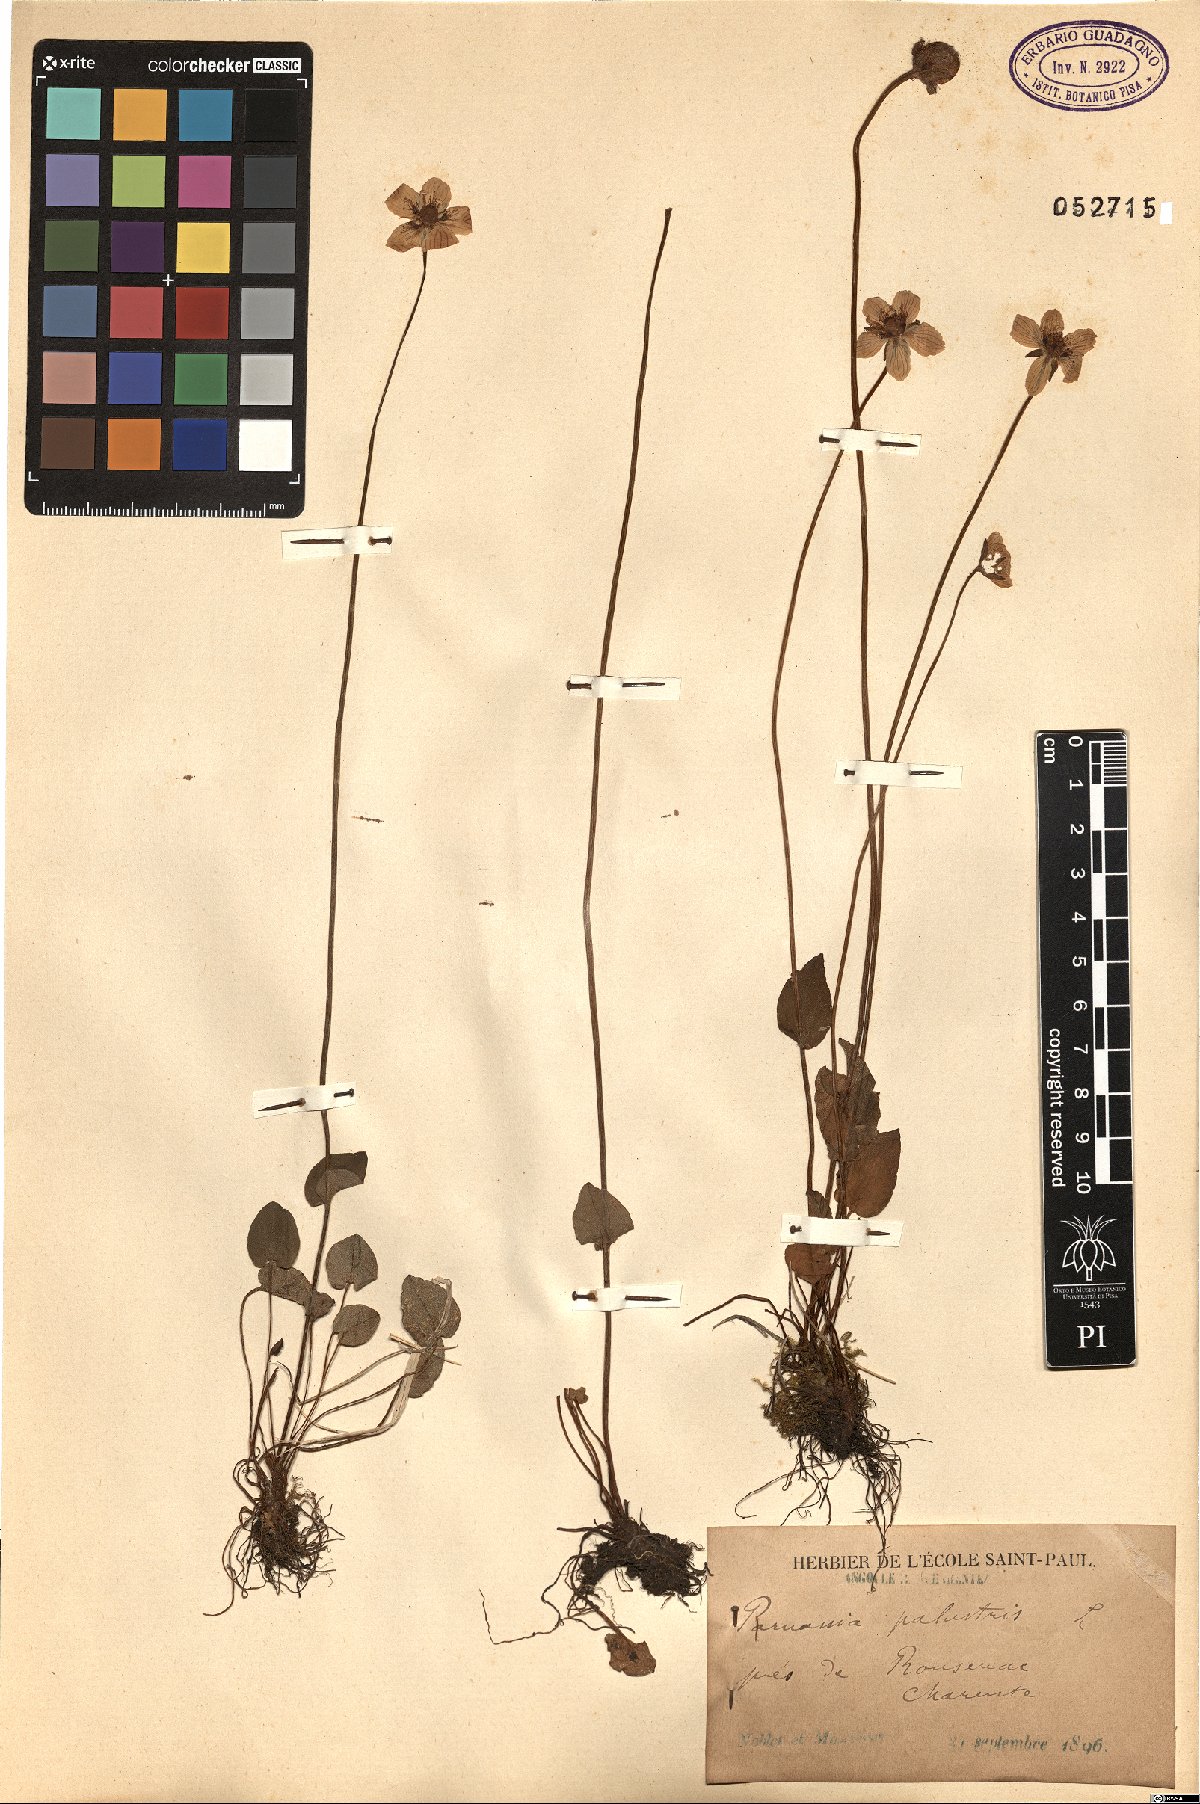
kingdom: Plantae
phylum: Tracheophyta
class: Magnoliopsida
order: Celastrales
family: Parnassiaceae
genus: Parnassia
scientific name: Parnassia palustris
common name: Grass-of-parnassus
